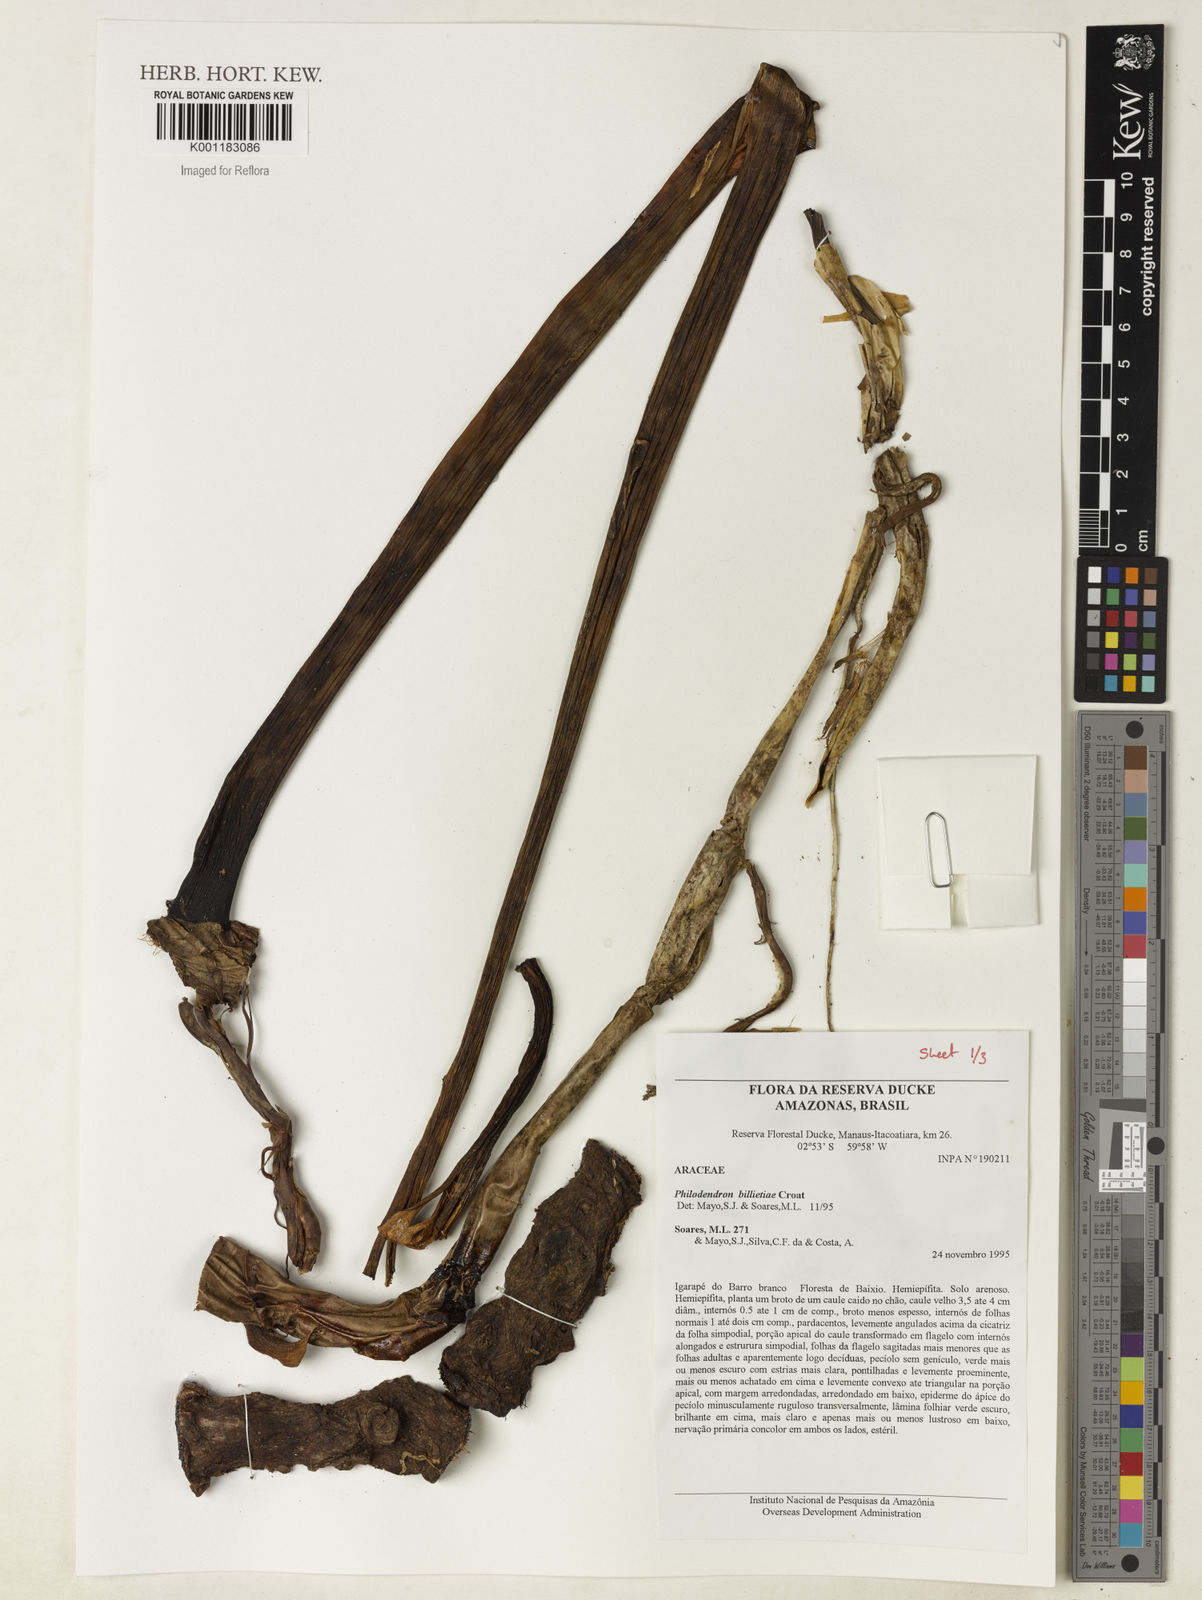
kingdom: Plantae
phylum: Tracheophyta
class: Liliopsida
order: Alismatales
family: Araceae
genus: Philodendron
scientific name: Philodendron billietiae
